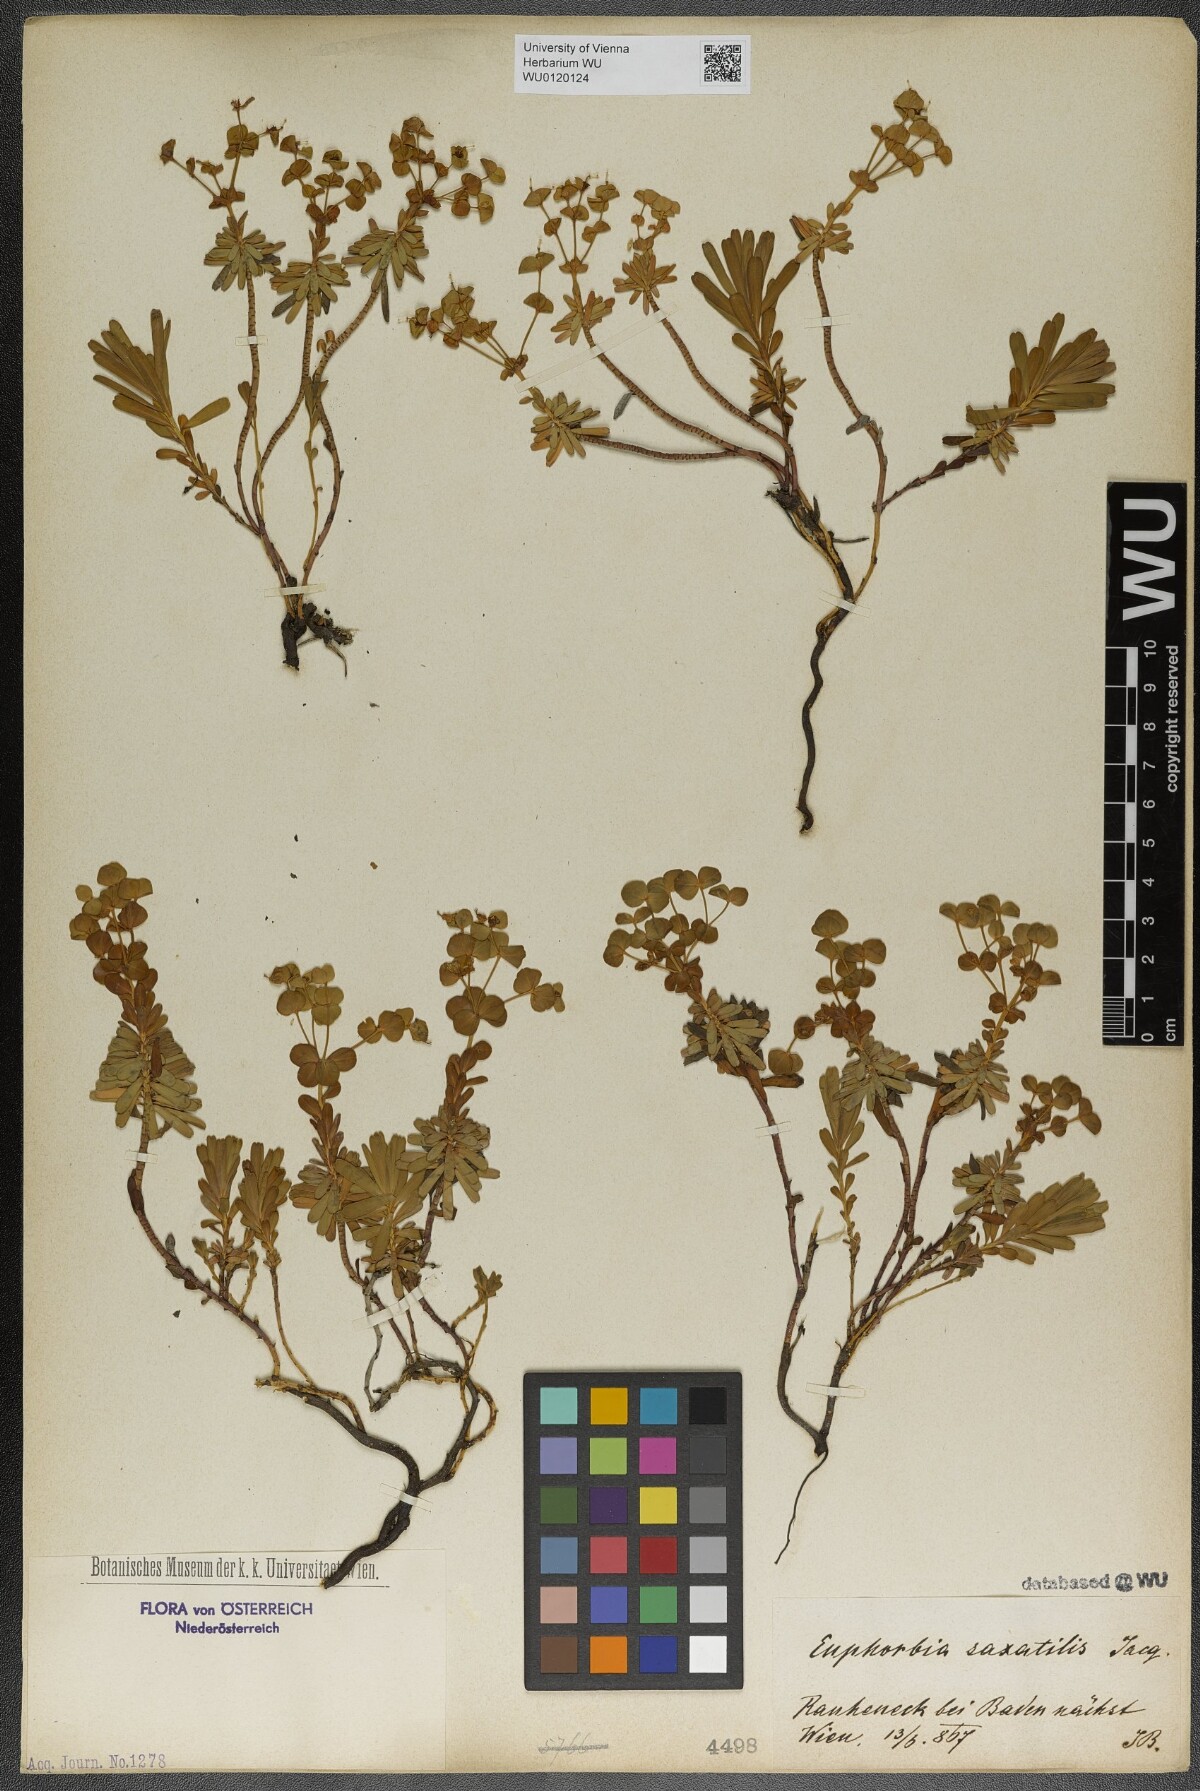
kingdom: Plantae
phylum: Tracheophyta
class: Magnoliopsida
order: Malpighiales
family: Euphorbiaceae
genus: Euphorbia
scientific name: Euphorbia saxatilis
